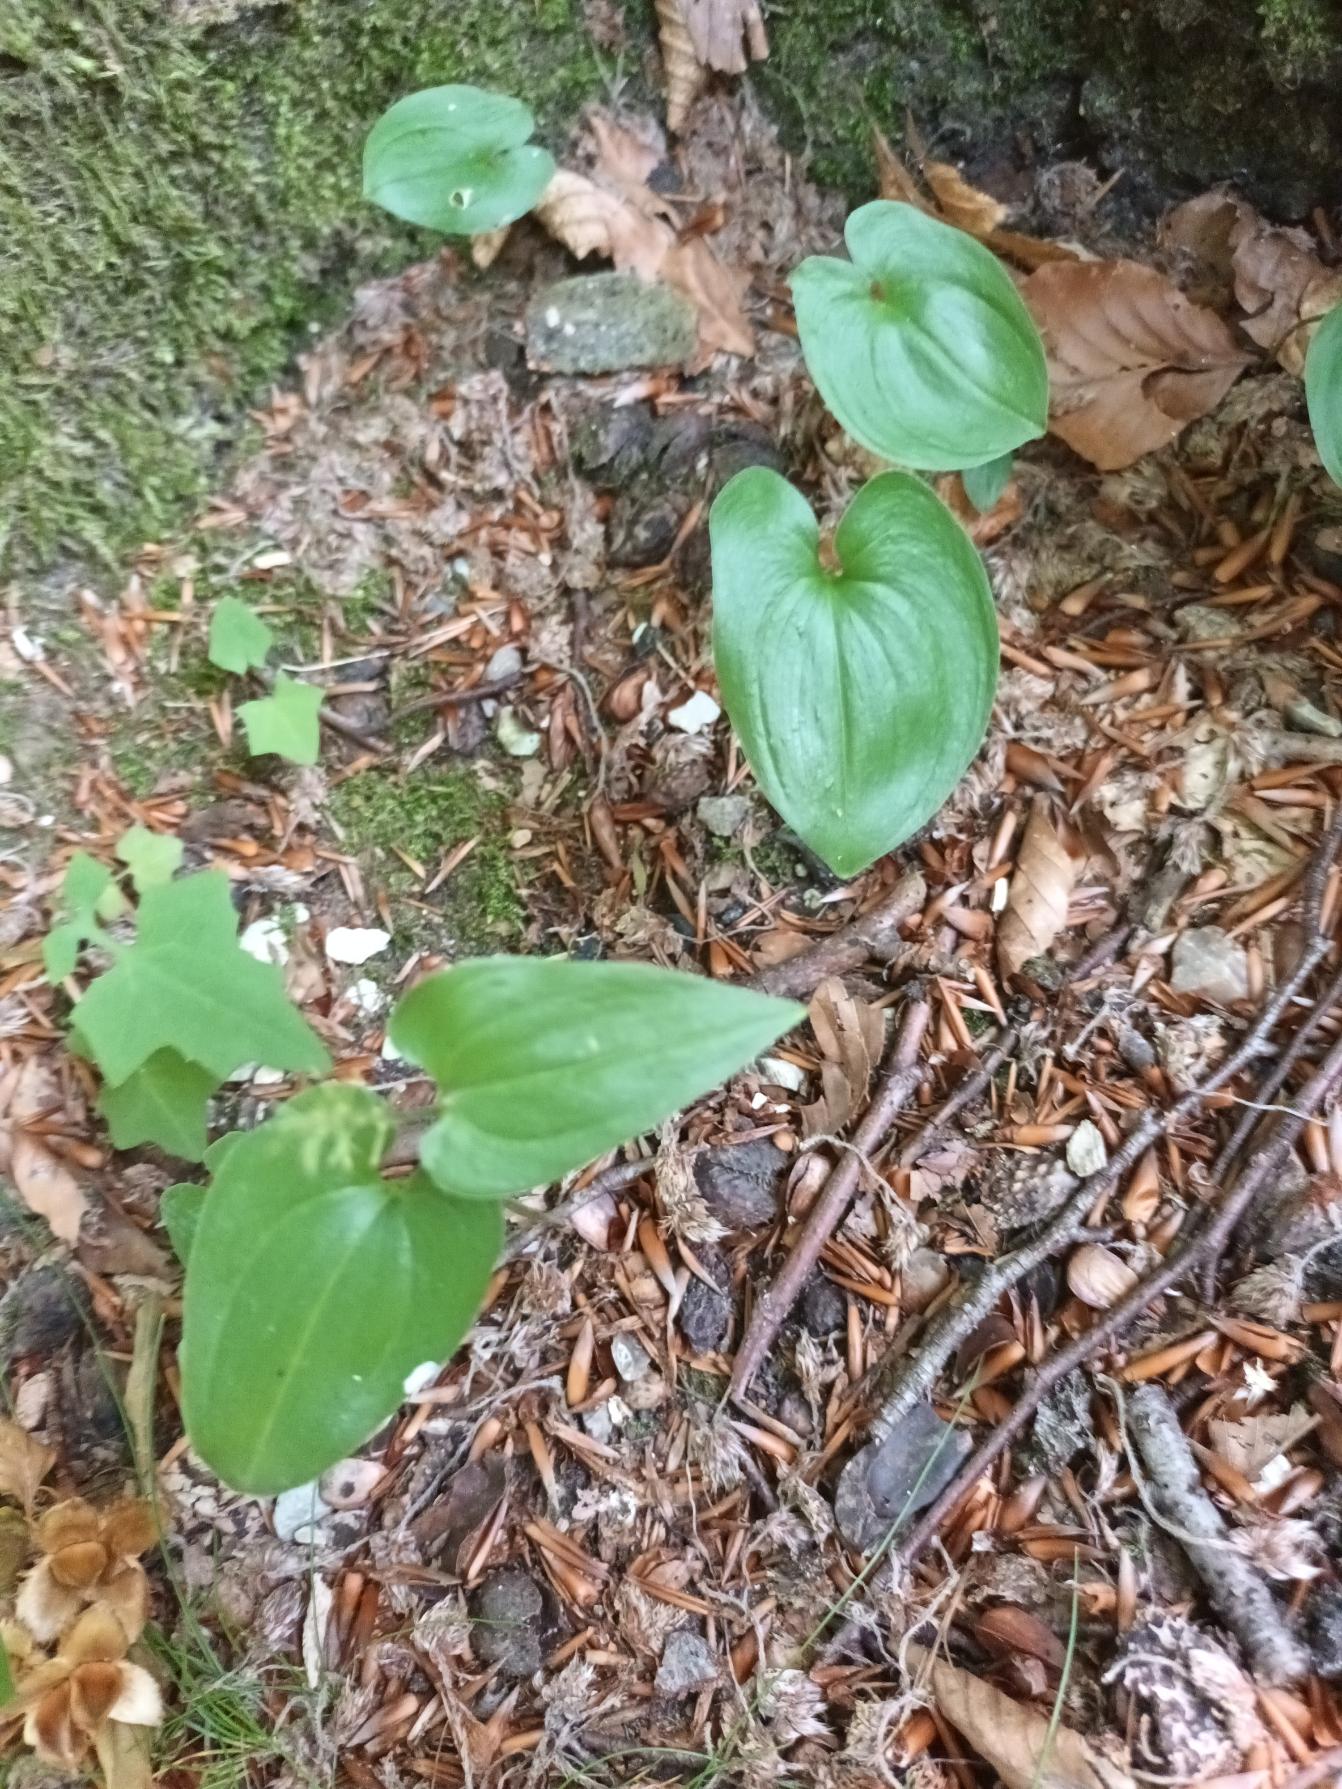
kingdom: Plantae
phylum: Tracheophyta
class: Liliopsida
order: Asparagales
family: Asparagaceae
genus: Maianthemum
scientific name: Maianthemum bifolium
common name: Majblomst
